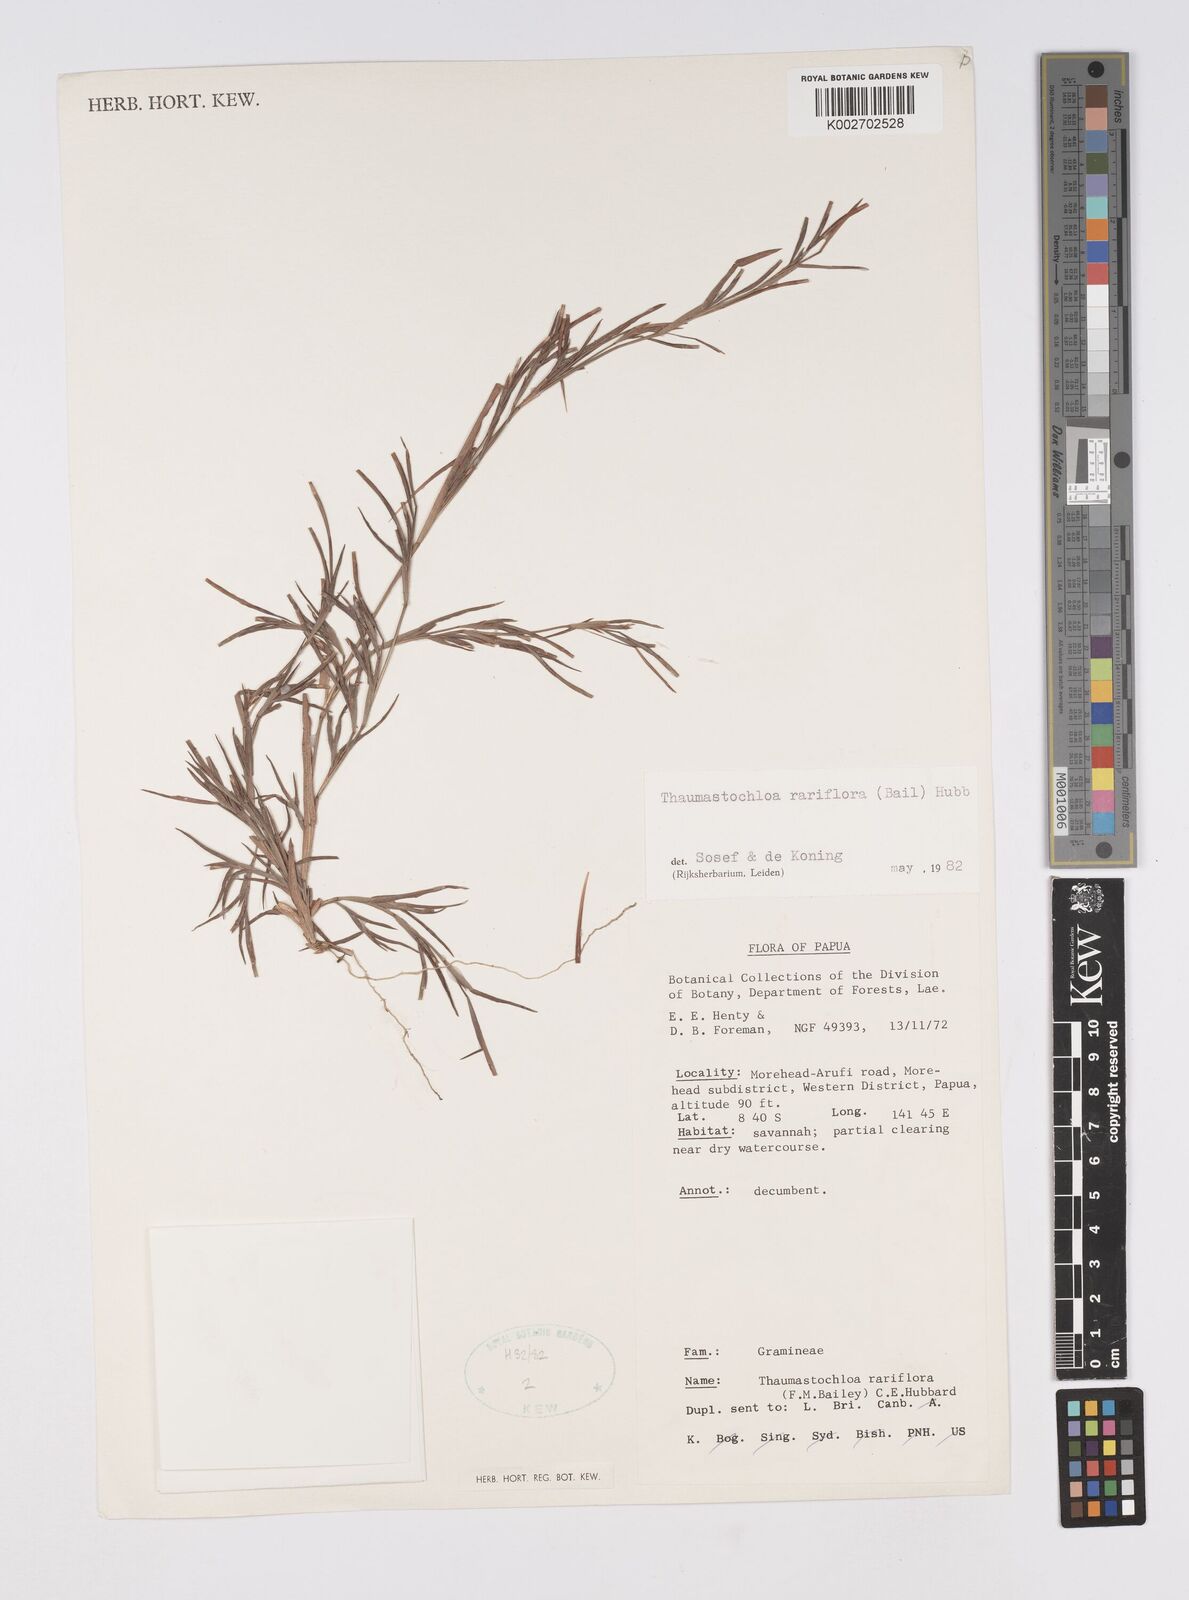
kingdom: Plantae
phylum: Tracheophyta
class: Liliopsida
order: Poales
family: Poaceae
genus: Thaumastochloa
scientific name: Thaumastochloa rariflora
